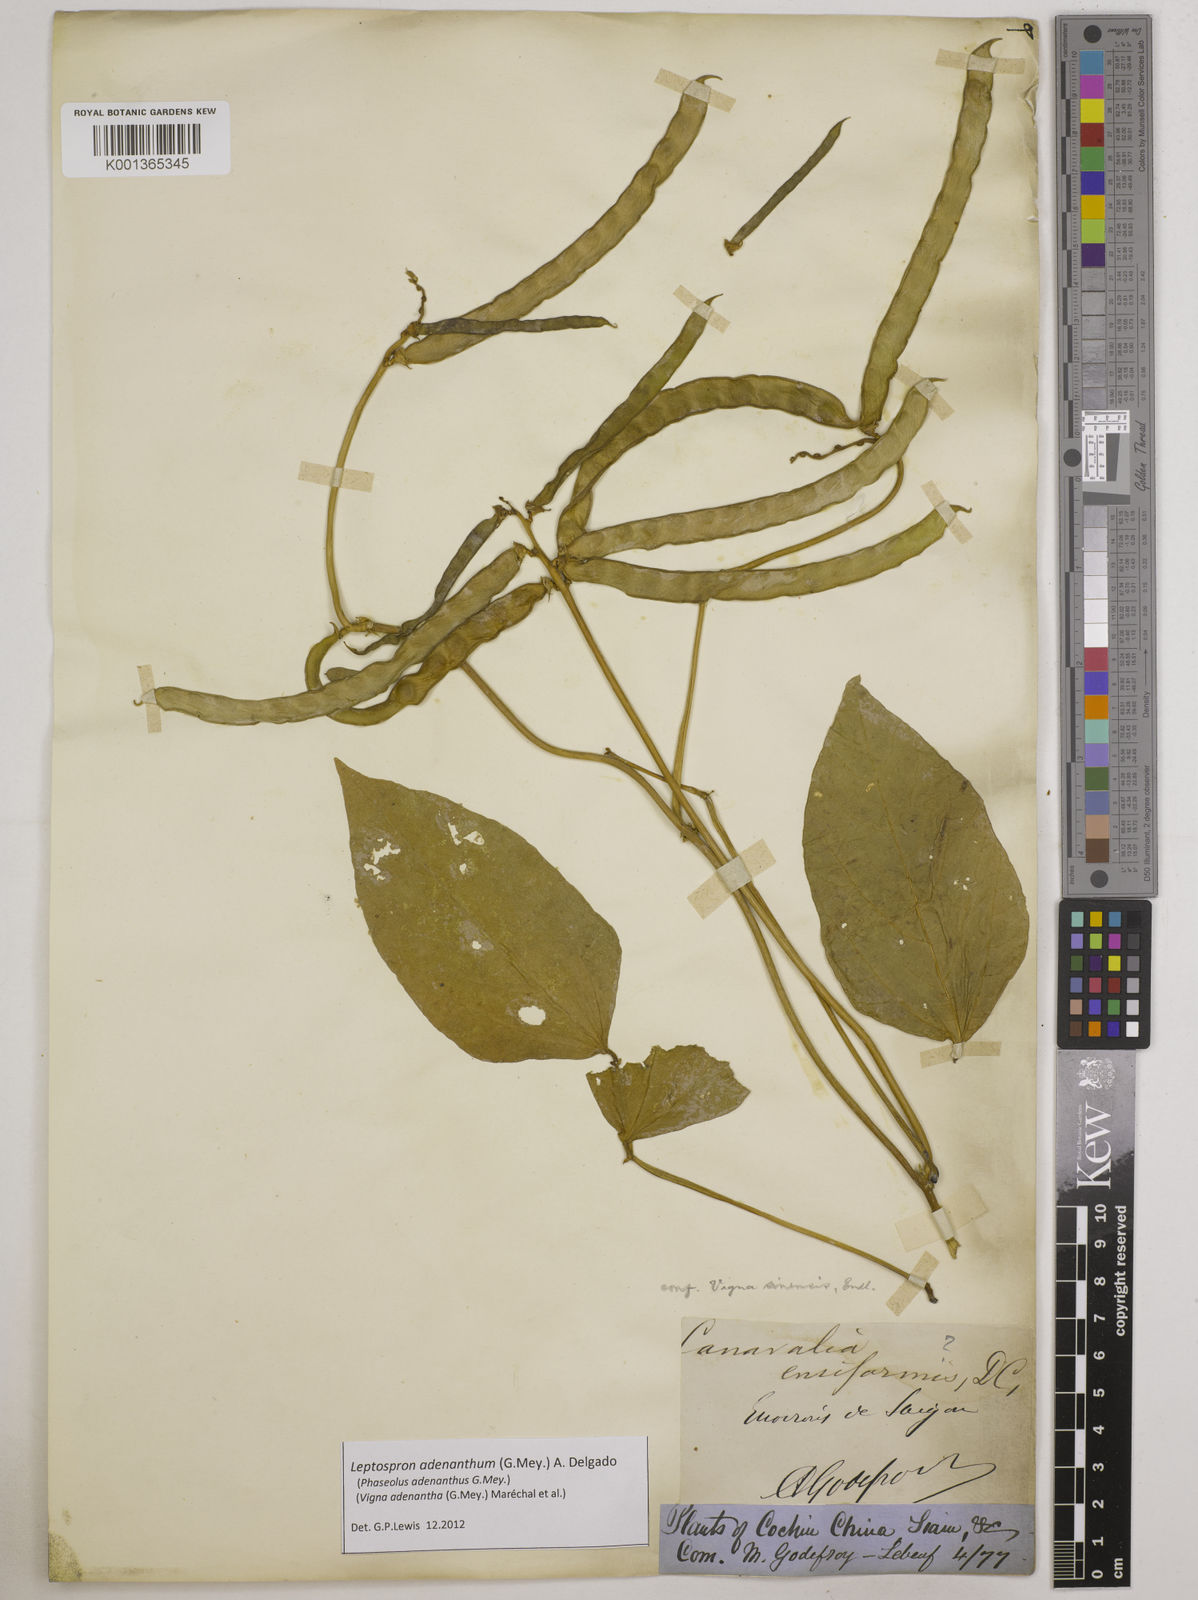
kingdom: Plantae
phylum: Tracheophyta
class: Magnoliopsida
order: Fabales
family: Fabaceae
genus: Leptospron
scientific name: Leptospron adenanthum
